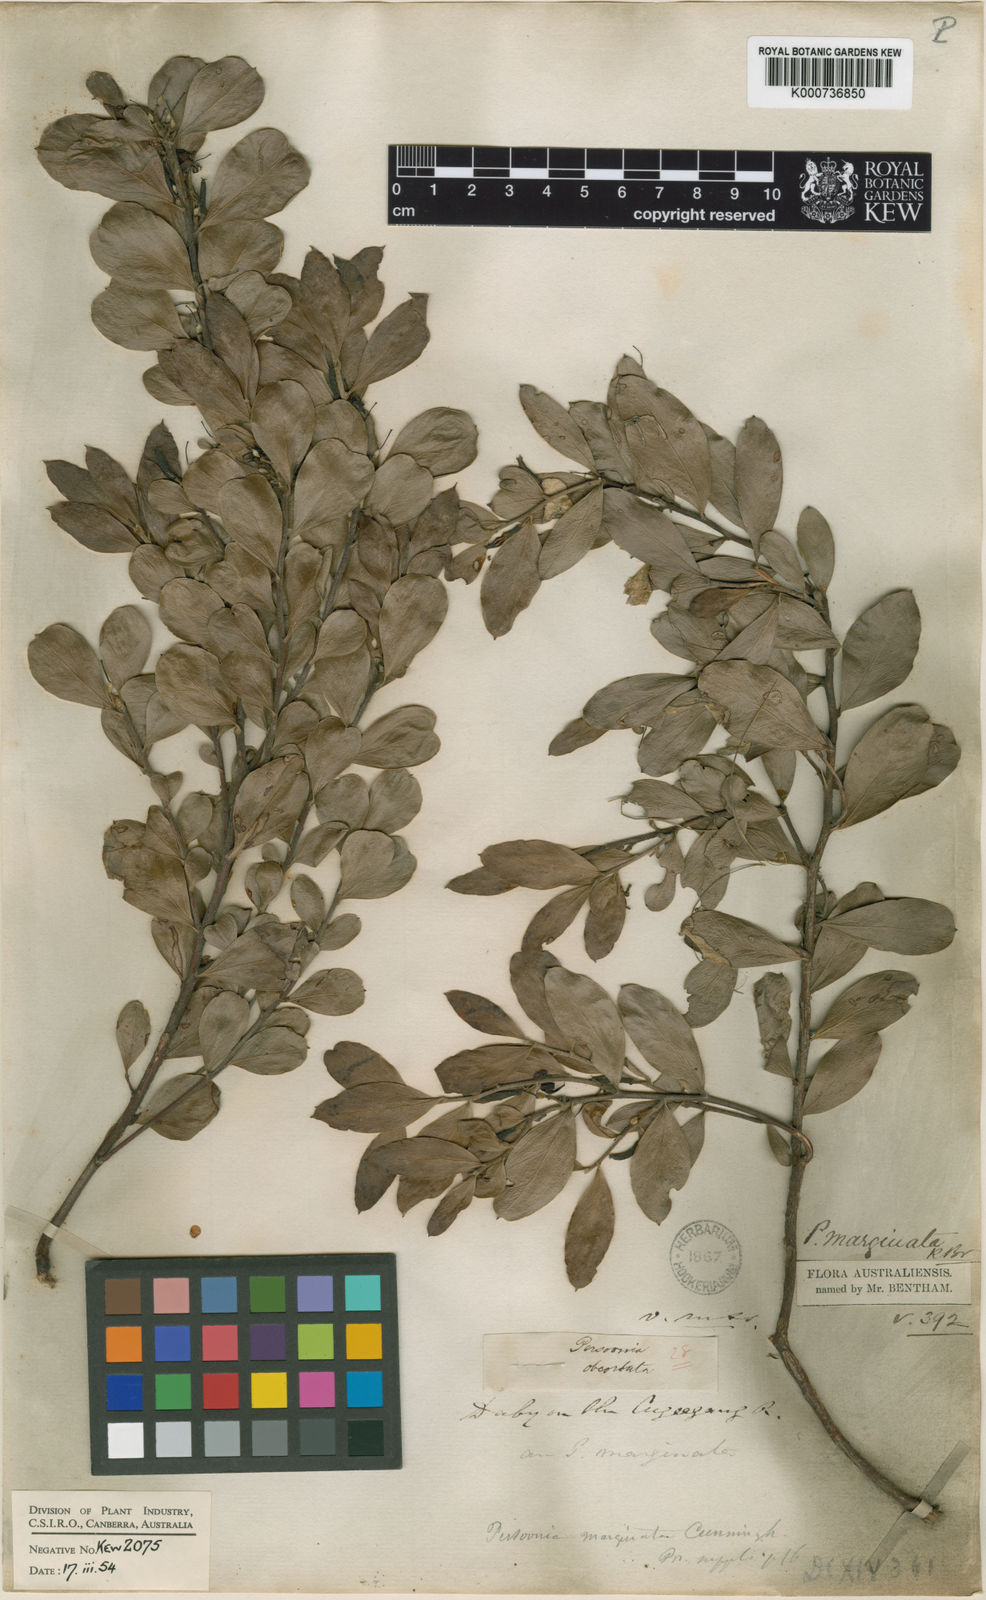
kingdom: Plantae
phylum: Tracheophyta
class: Magnoliopsida
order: Proteales
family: Proteaceae
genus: Persoonia
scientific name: Persoonia marginata
